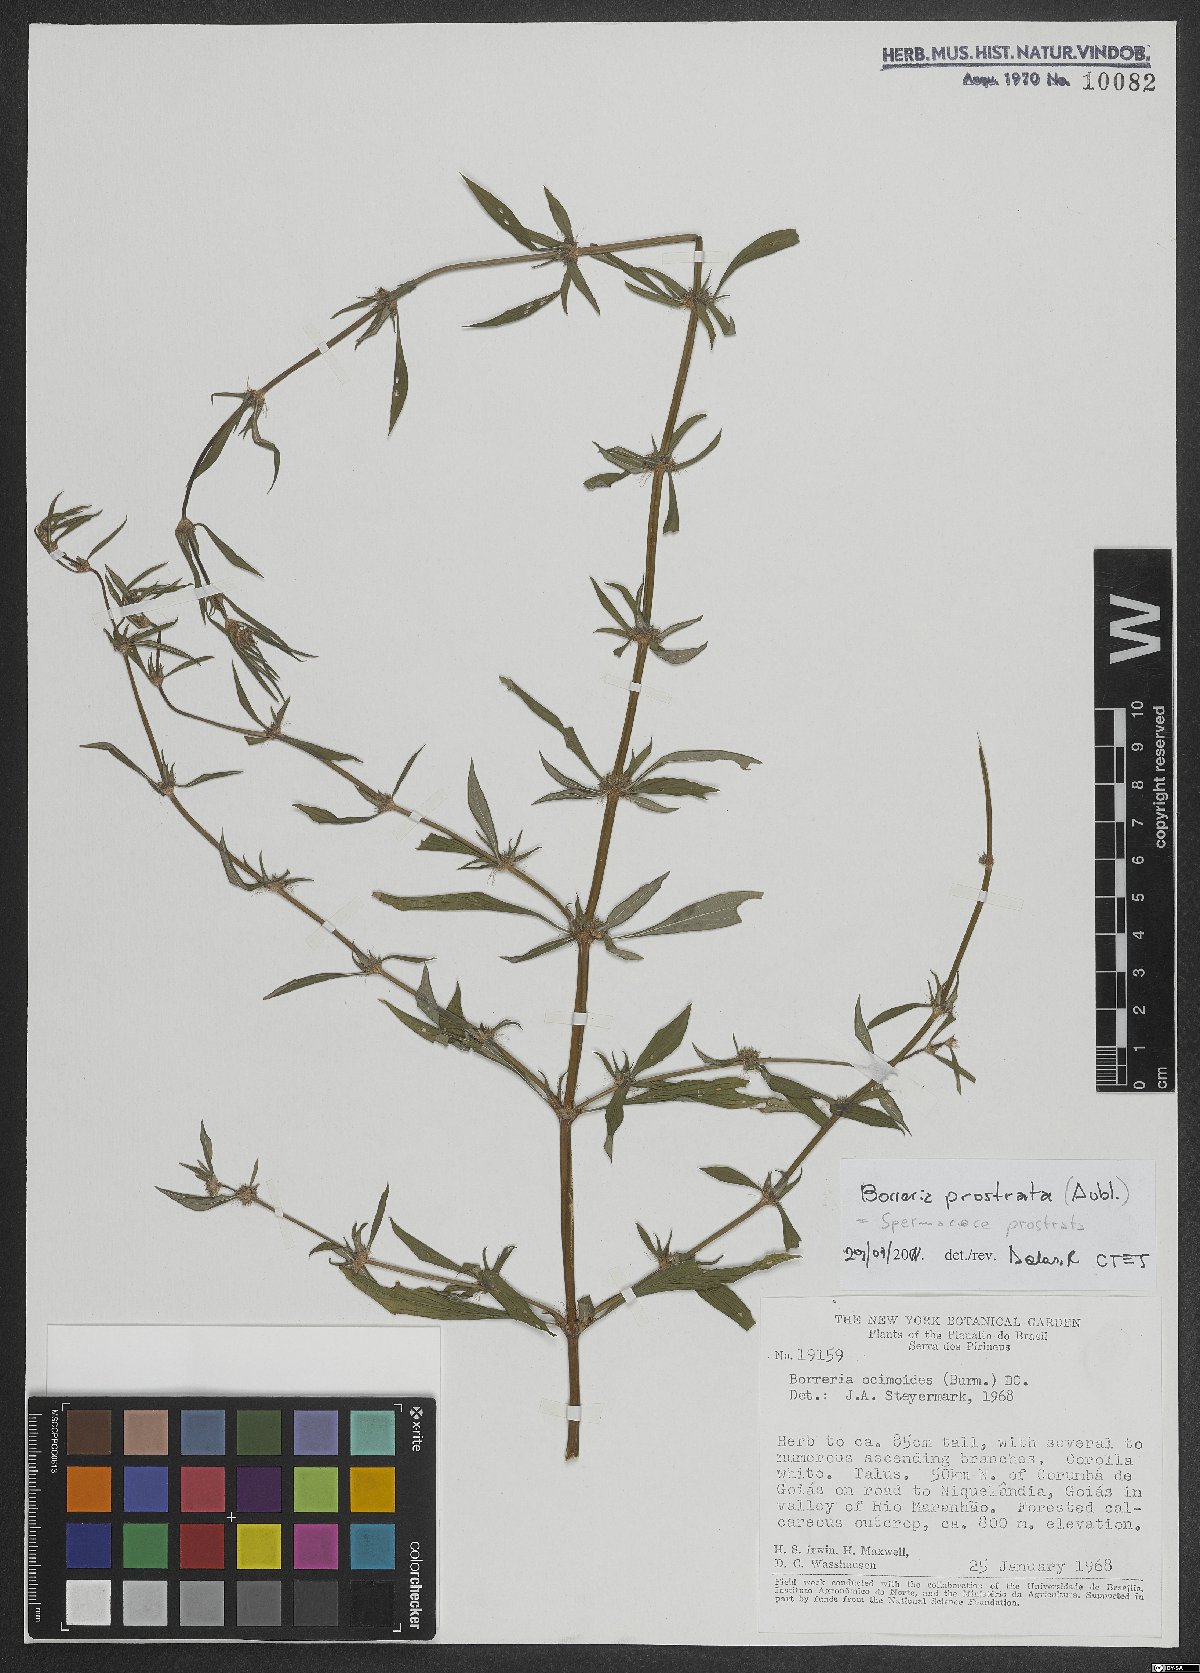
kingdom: Plantae
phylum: Tracheophyta
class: Magnoliopsida
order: Gentianales
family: Rubiaceae
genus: Spermacoce
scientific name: Spermacoce prostrata
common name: Prostrate false buttonweed
